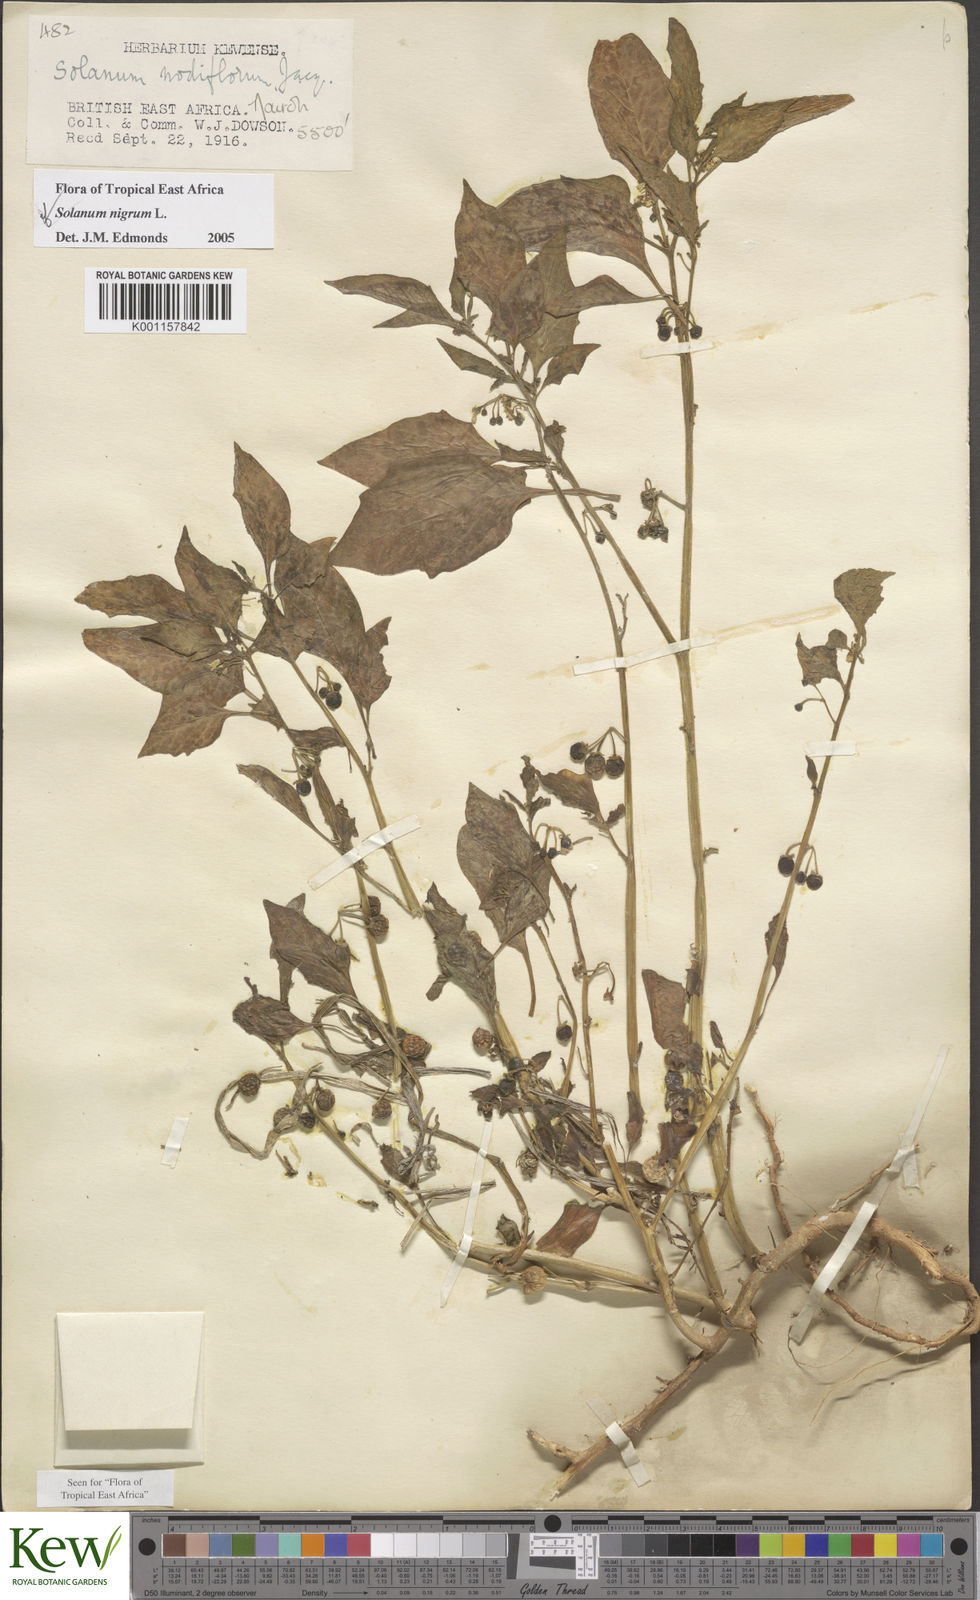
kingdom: Plantae
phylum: Tracheophyta
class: Magnoliopsida
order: Solanales
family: Solanaceae
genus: Solanum
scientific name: Solanum nigrum
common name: Black nightshade
